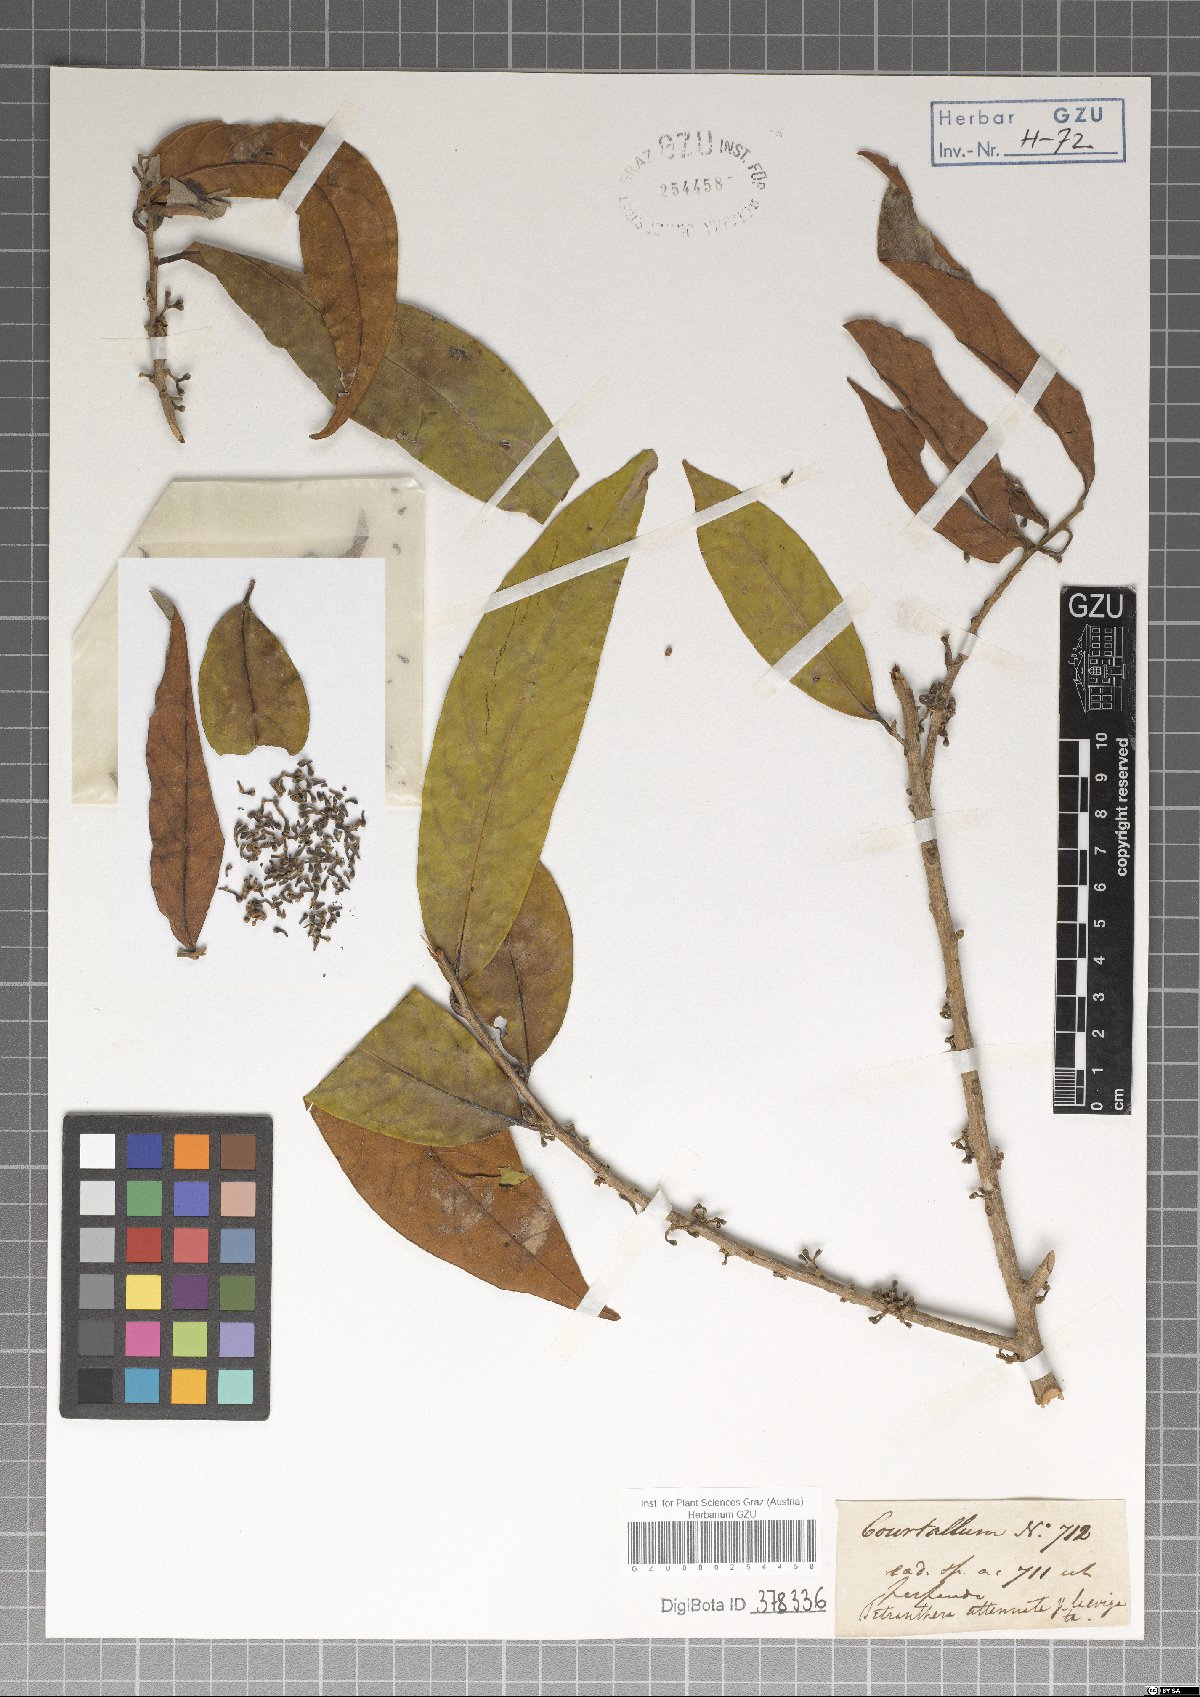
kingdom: Plantae
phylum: Tracheophyta
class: Magnoliopsida
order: Laurales
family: Lauraceae
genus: Litsea
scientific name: Litsea salicifolia
